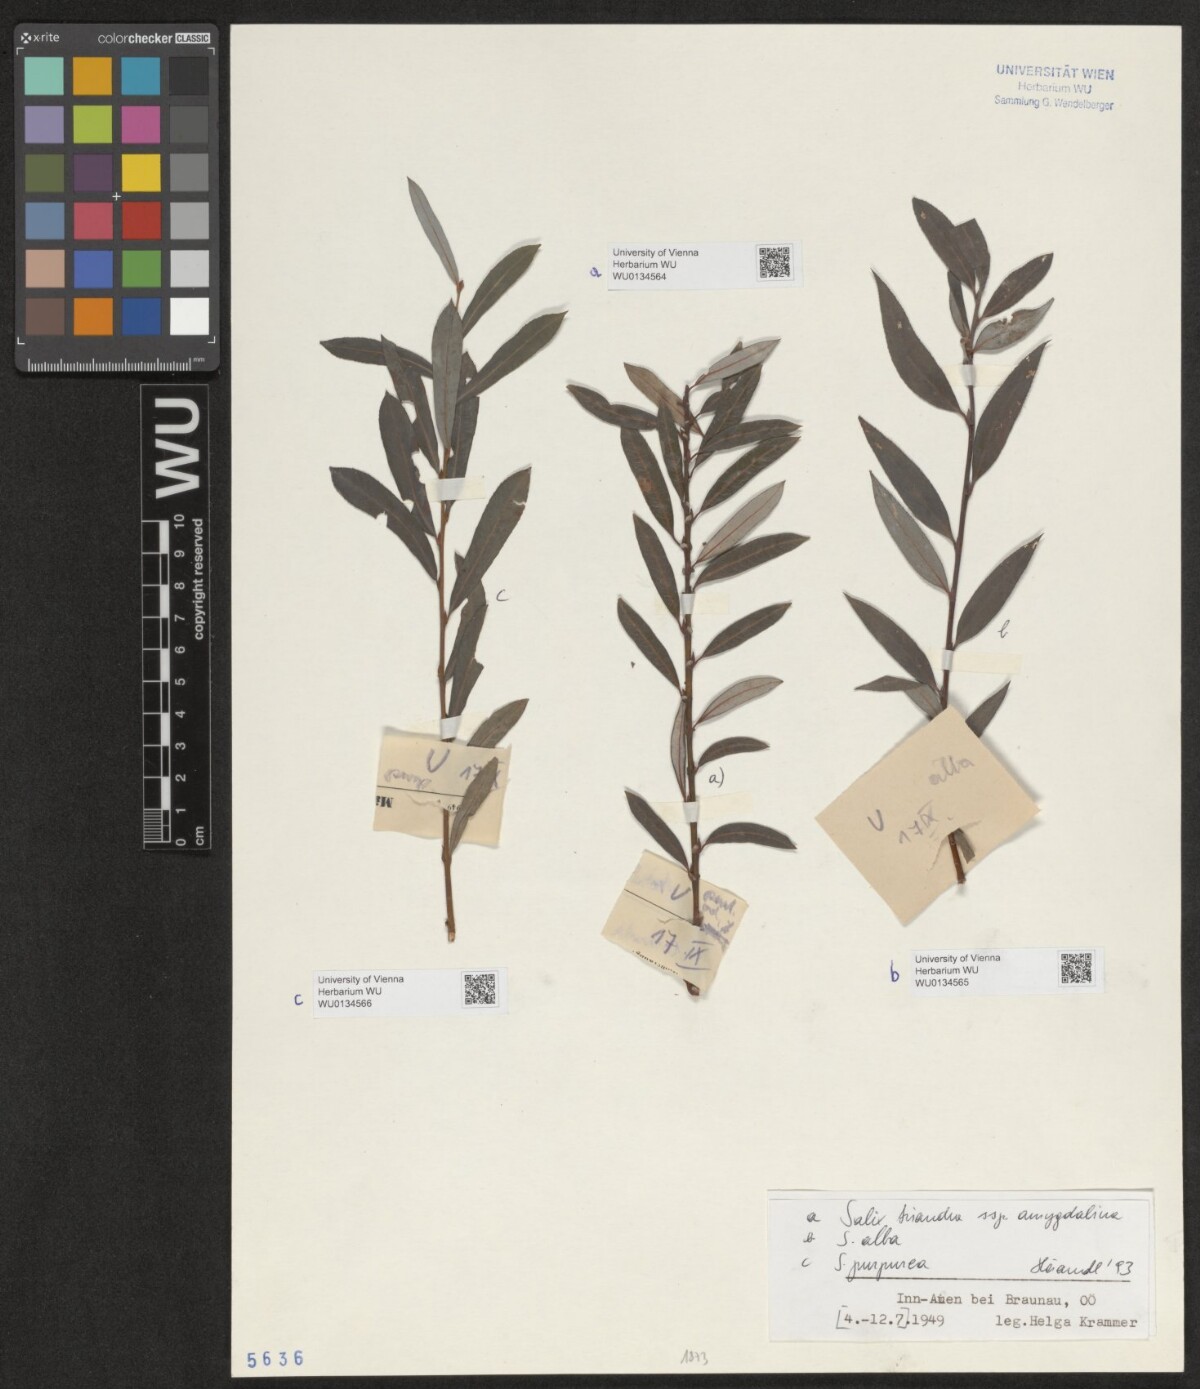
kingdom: Plantae
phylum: Tracheophyta
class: Magnoliopsida
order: Malpighiales
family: Salicaceae
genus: Salix
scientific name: Salix alba
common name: White willow
